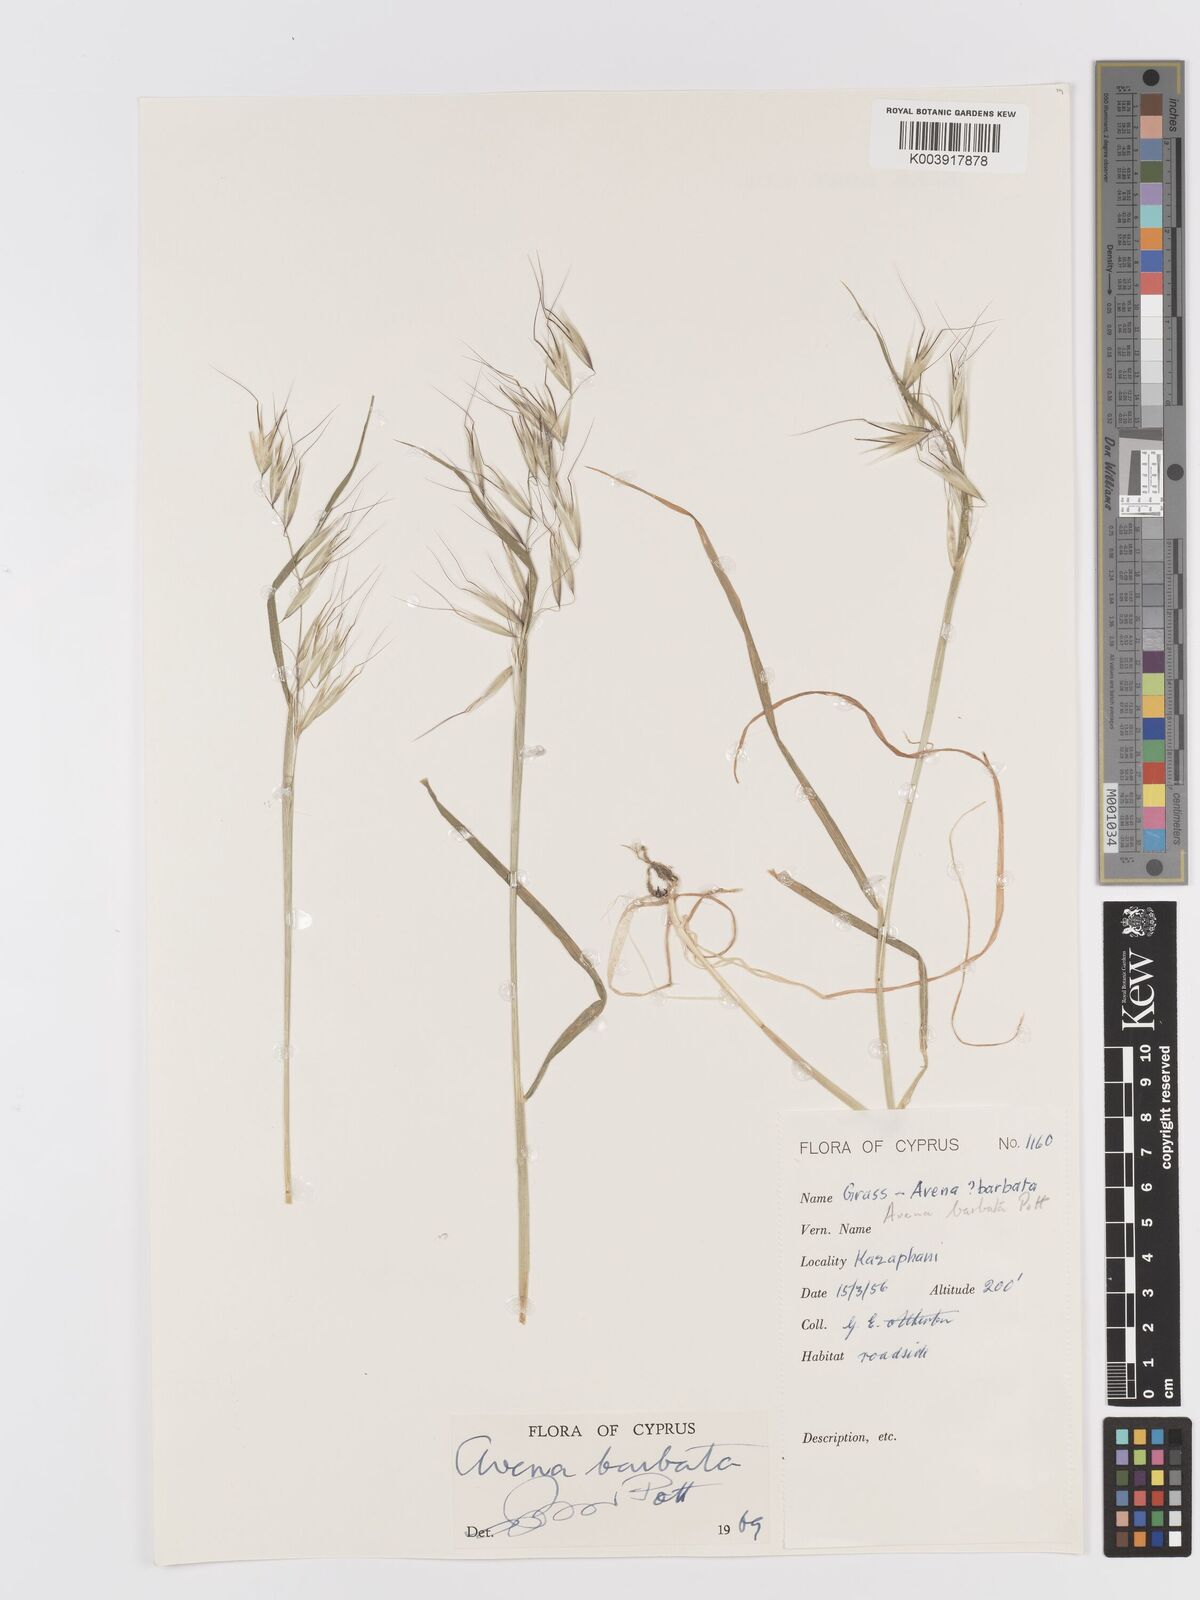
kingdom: Plantae
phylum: Tracheophyta
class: Liliopsida
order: Poales
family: Poaceae
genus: Avena
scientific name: Avena
